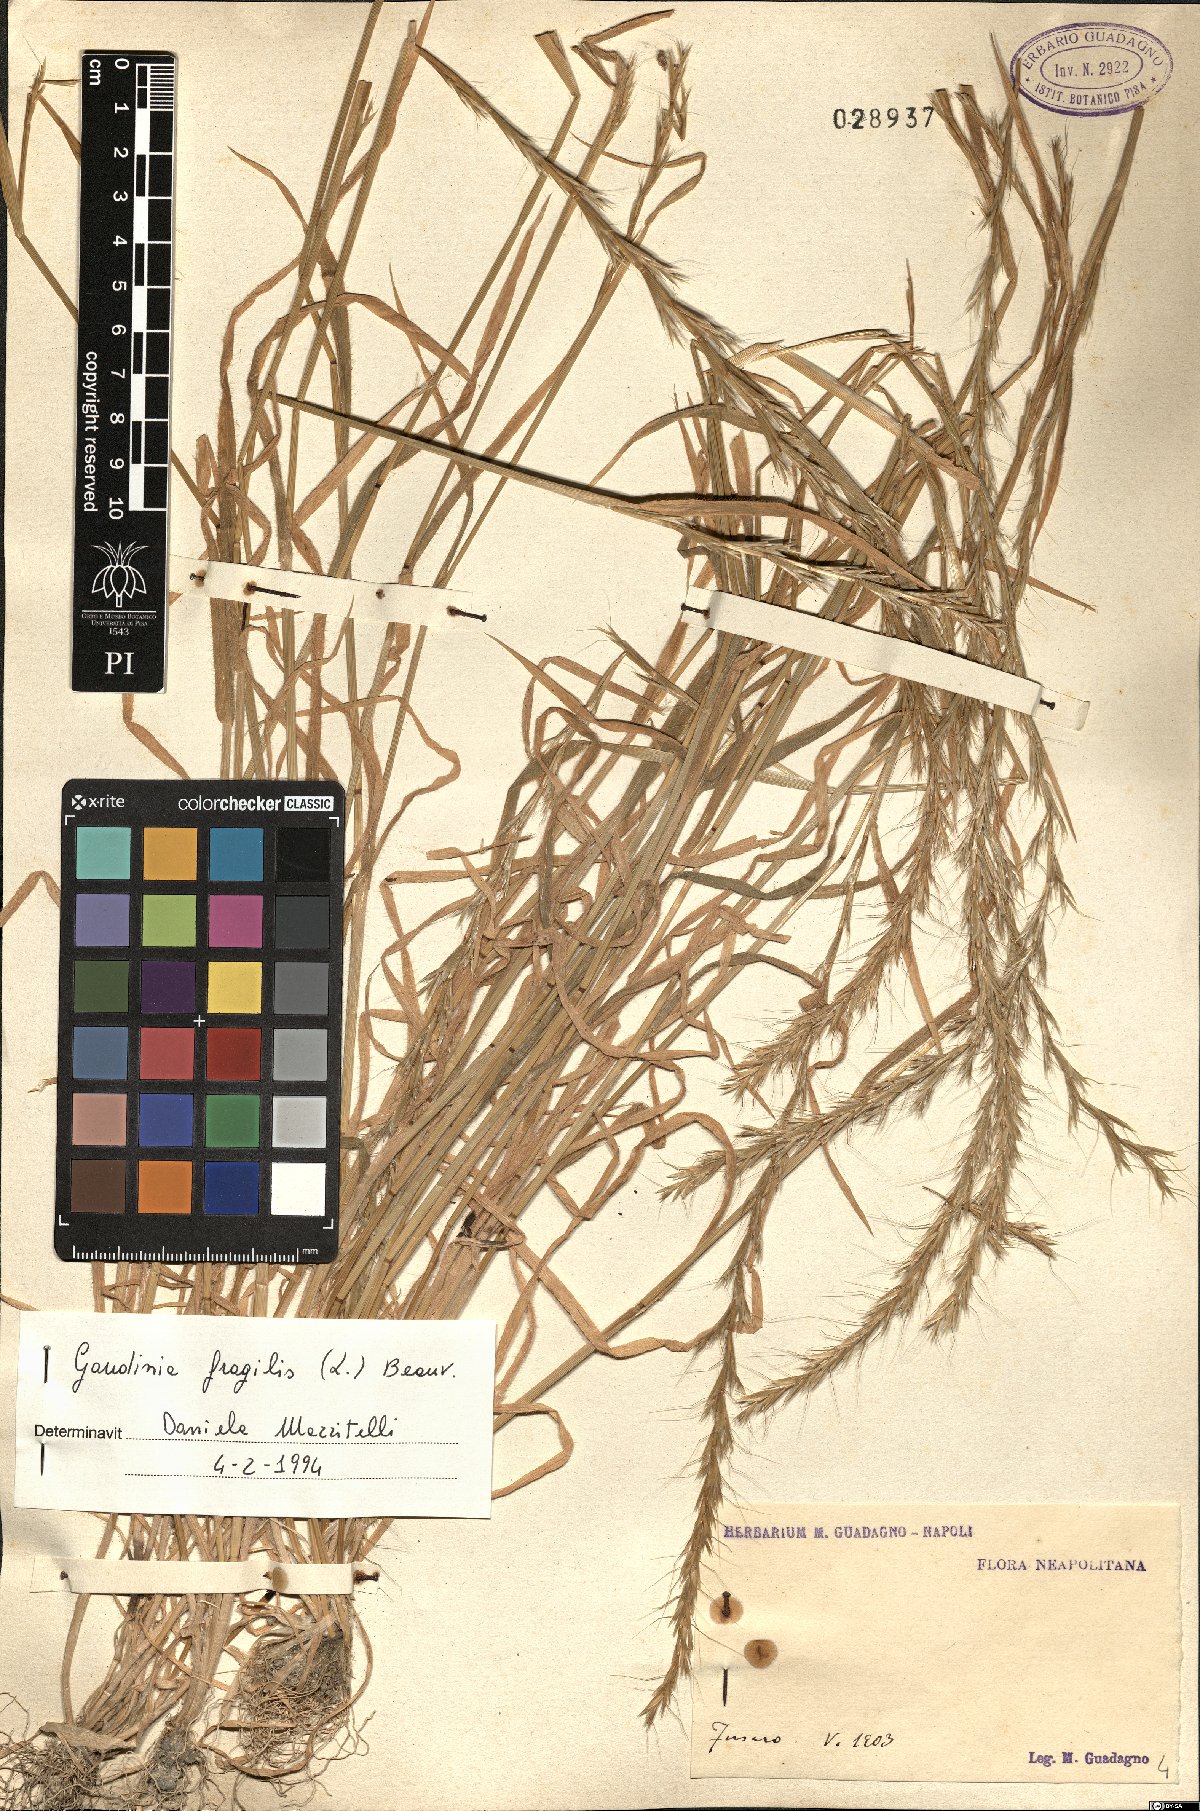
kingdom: Plantae
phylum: Tracheophyta
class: Liliopsida
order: Poales
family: Poaceae
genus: Gaudinia
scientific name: Gaudinia fragilis
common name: French oat-grass
